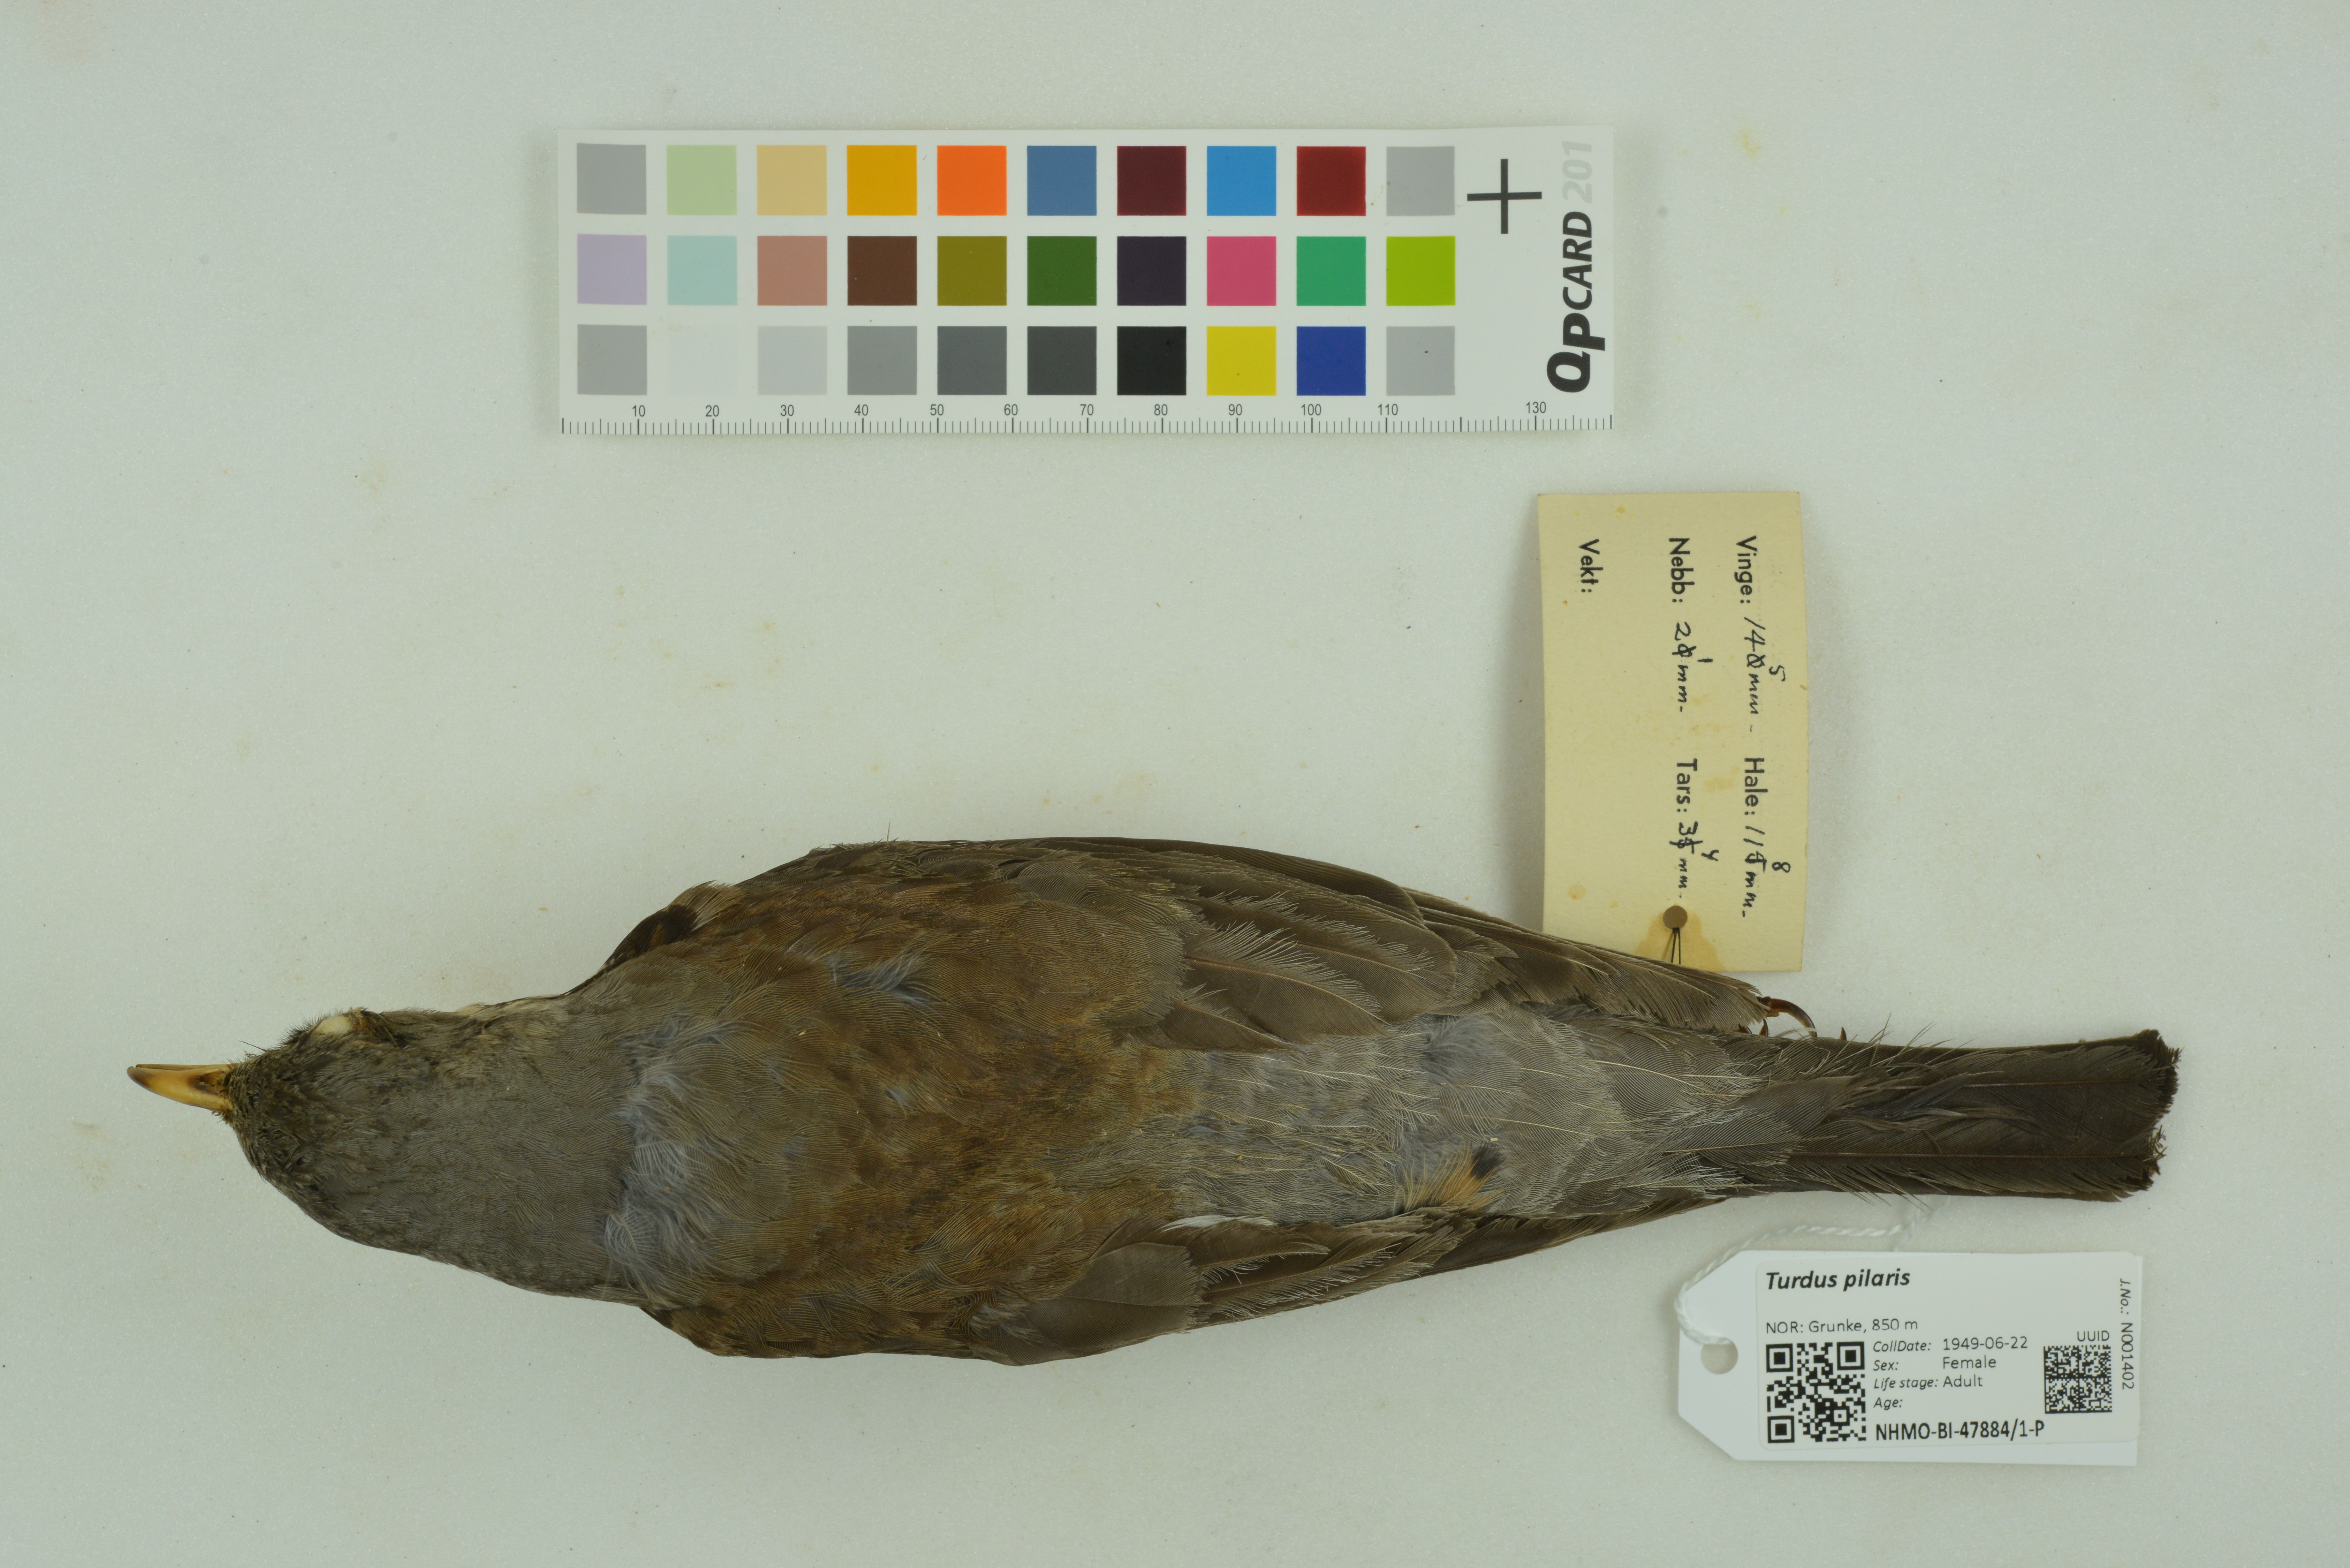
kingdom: Animalia
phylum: Chordata
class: Aves
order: Passeriformes
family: Turdidae
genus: Turdus
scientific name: Turdus pilaris
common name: Fieldfare
